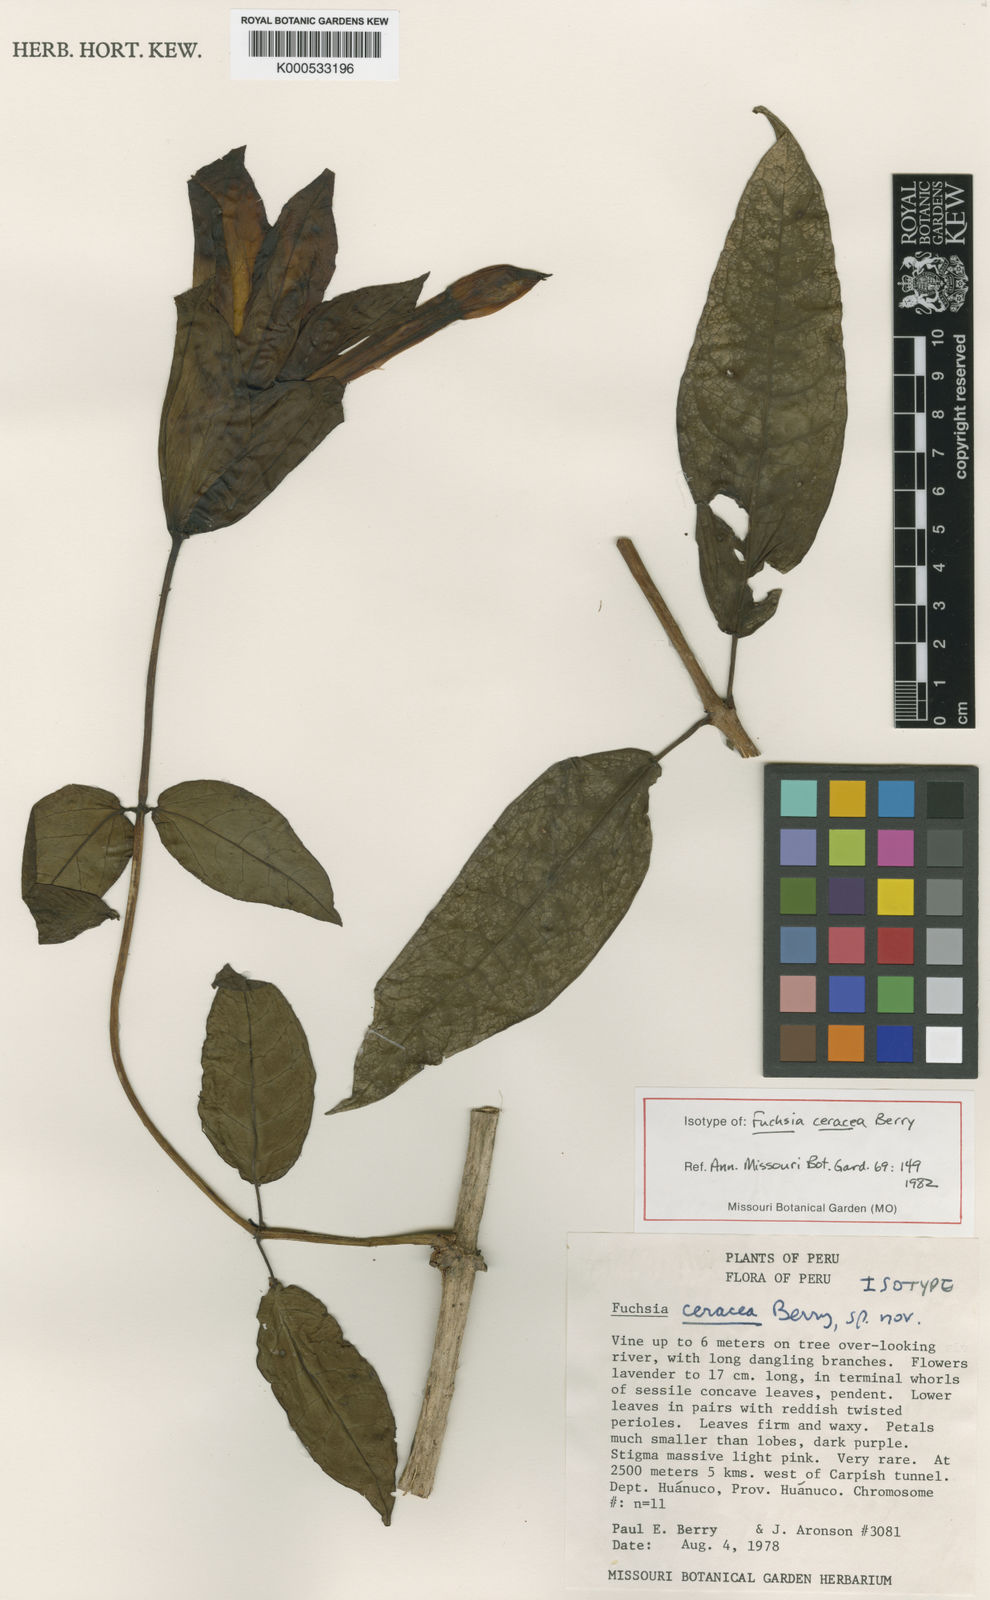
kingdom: Plantae
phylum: Tracheophyta
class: Magnoliopsida
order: Myrtales
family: Onagraceae
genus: Fuchsia
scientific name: Fuchsia ceracea
